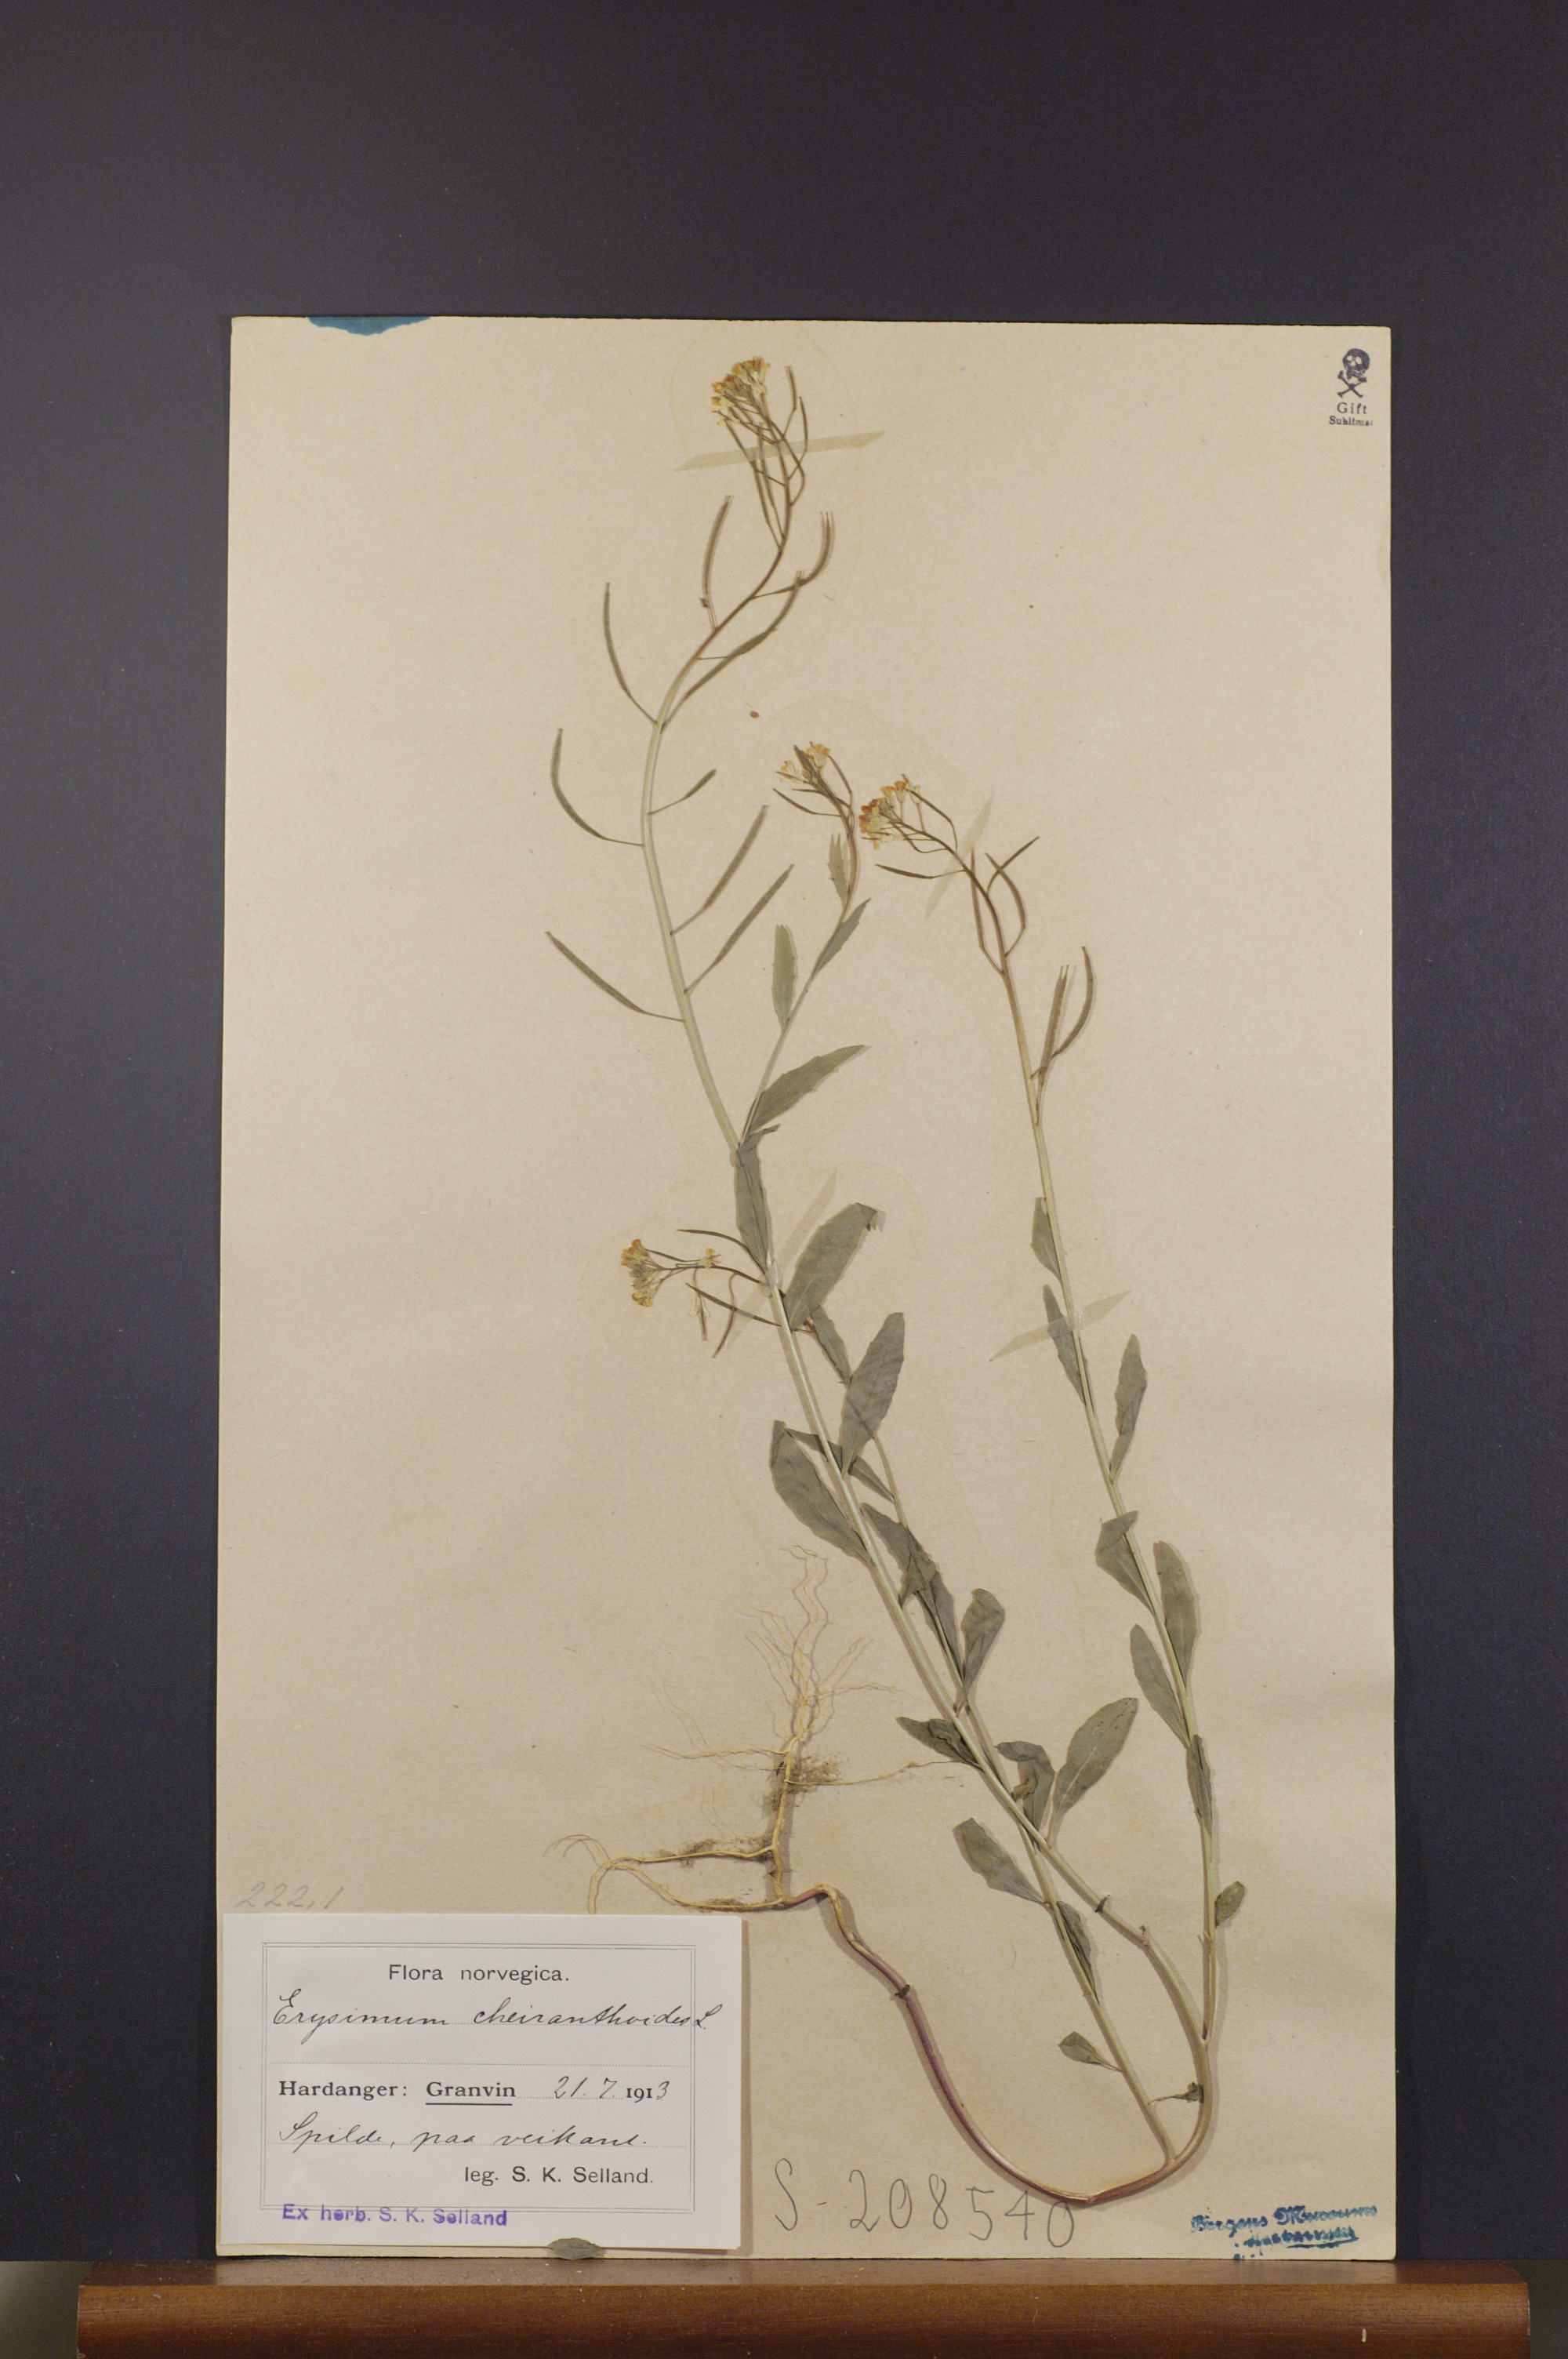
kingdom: Plantae
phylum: Tracheophyta
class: Magnoliopsida
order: Brassicales
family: Brassicaceae
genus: Erysimum
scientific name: Erysimum cheiranthoides
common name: Treacle mustard
